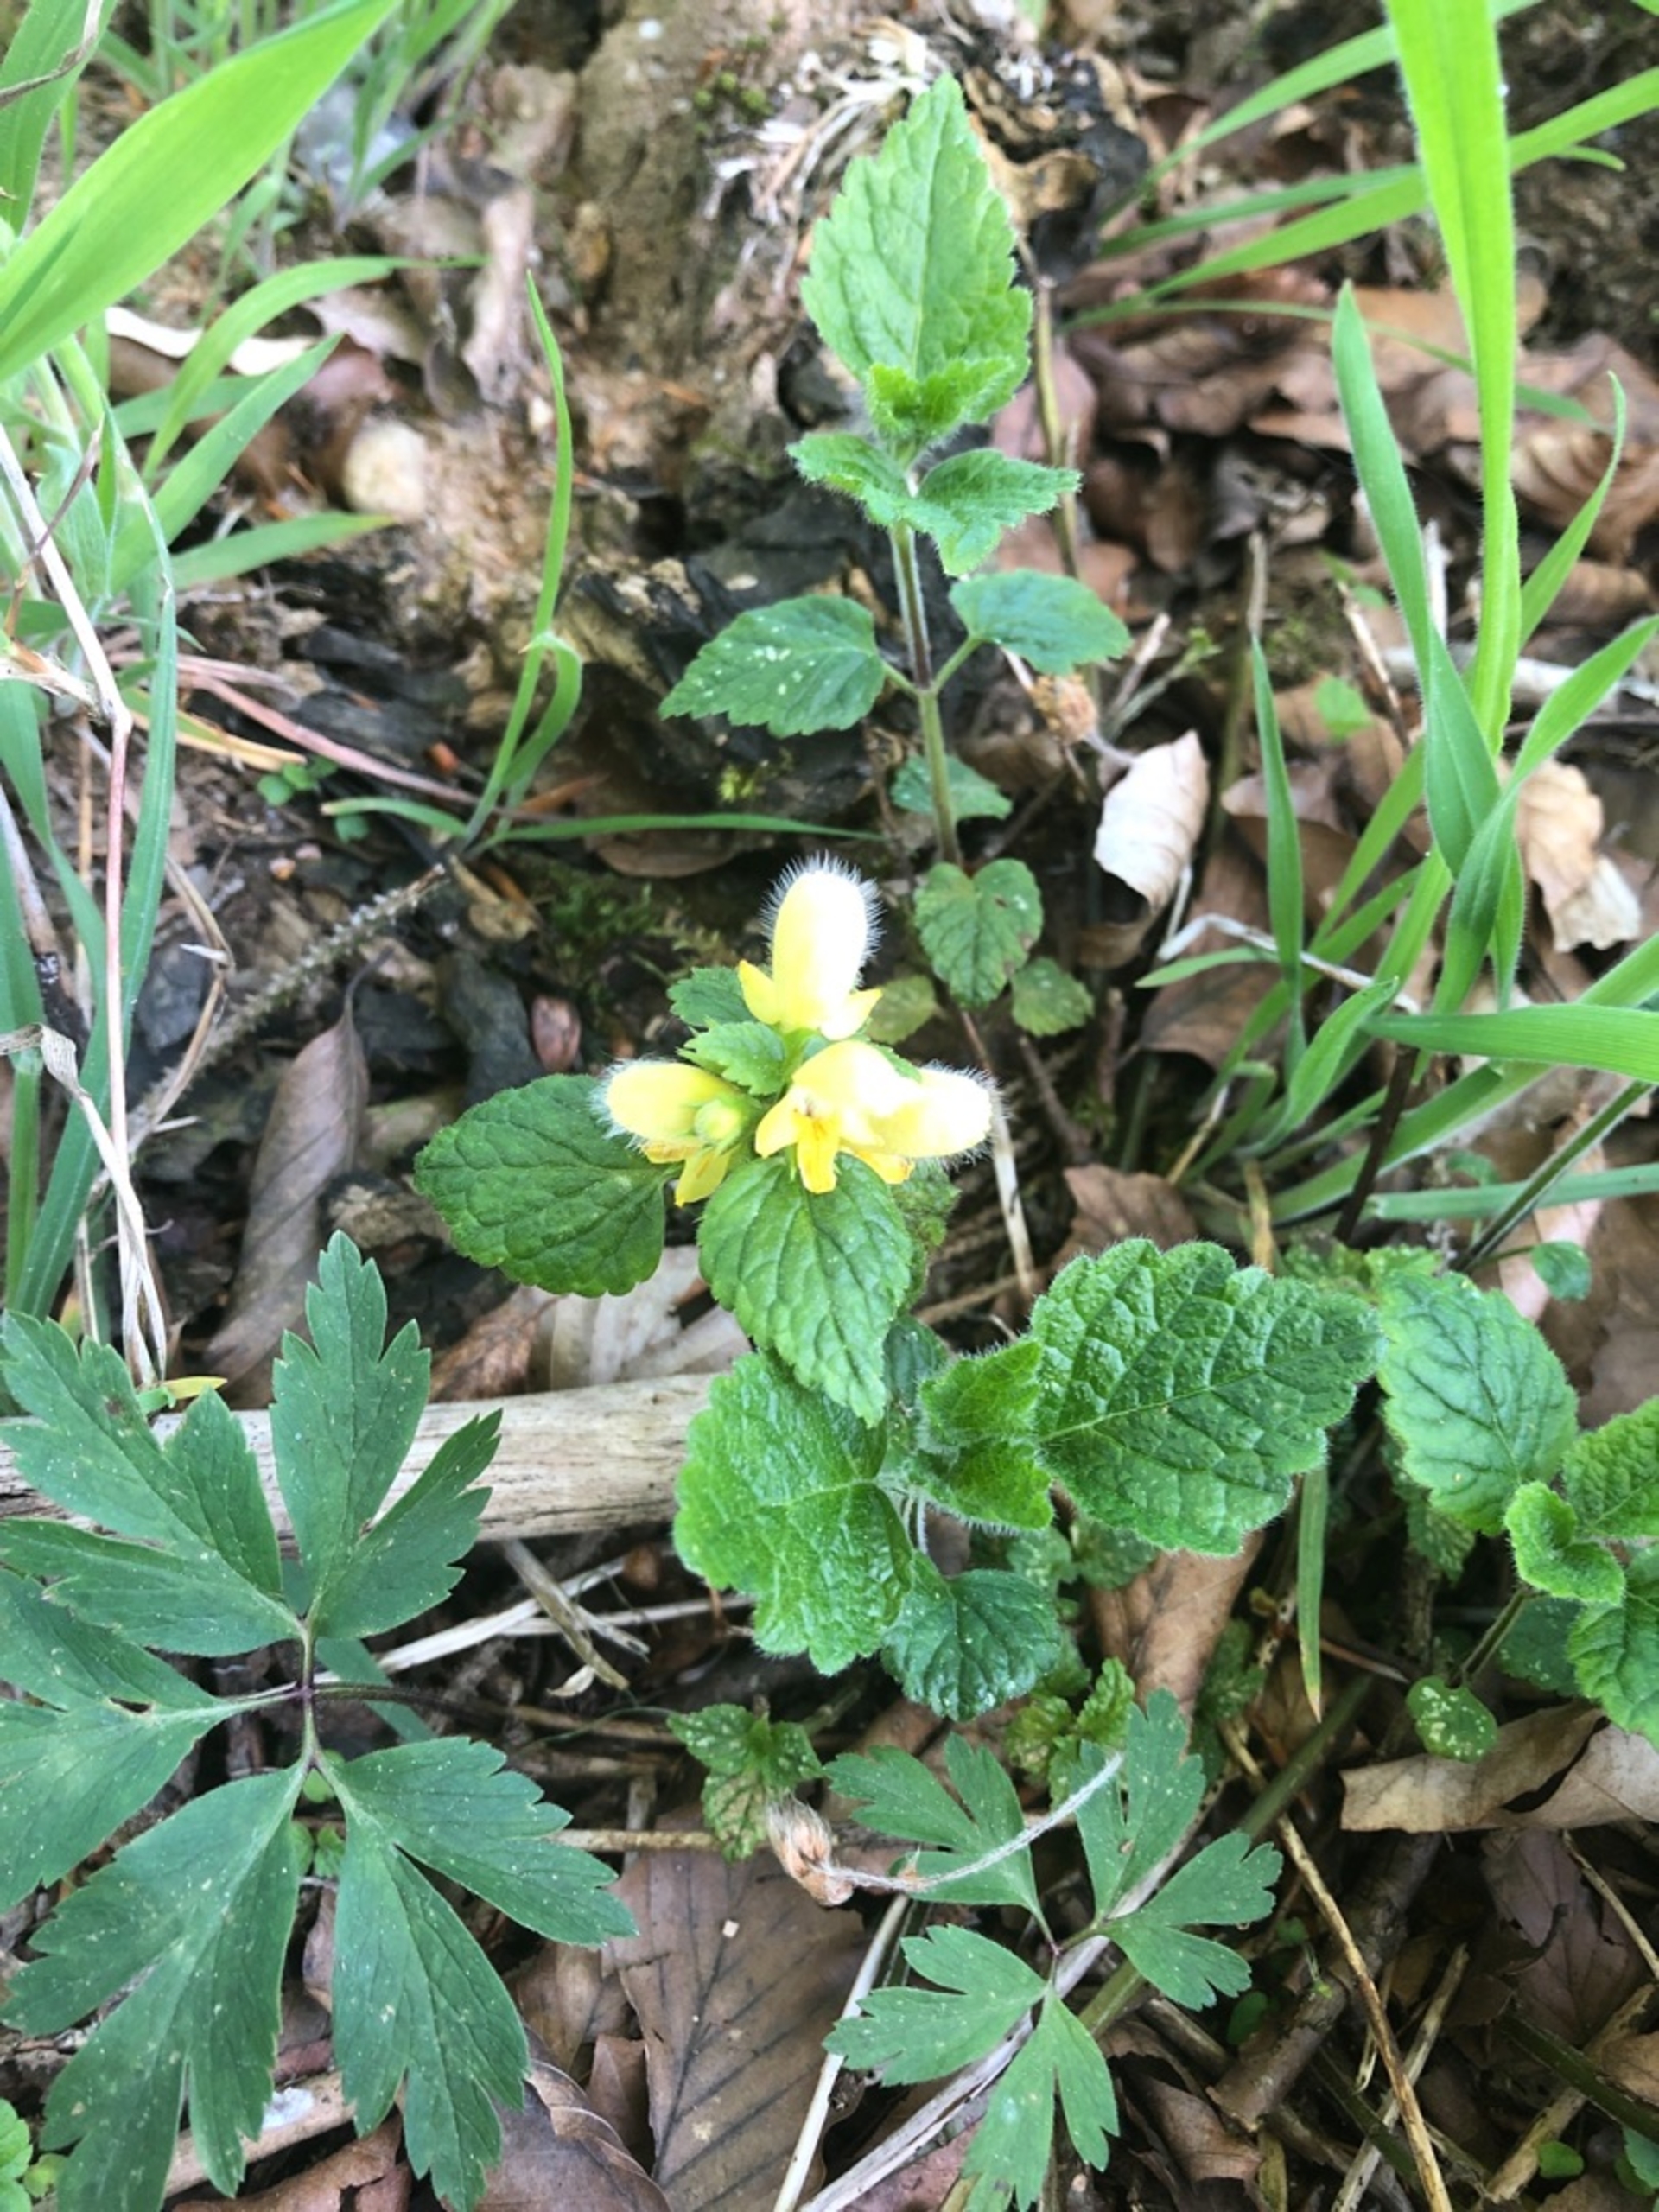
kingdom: Plantae
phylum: Tracheophyta
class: Magnoliopsida
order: Lamiales
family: Lamiaceae
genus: Lamium
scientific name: Lamium galeobdolon
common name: Almindelig guldnælde
